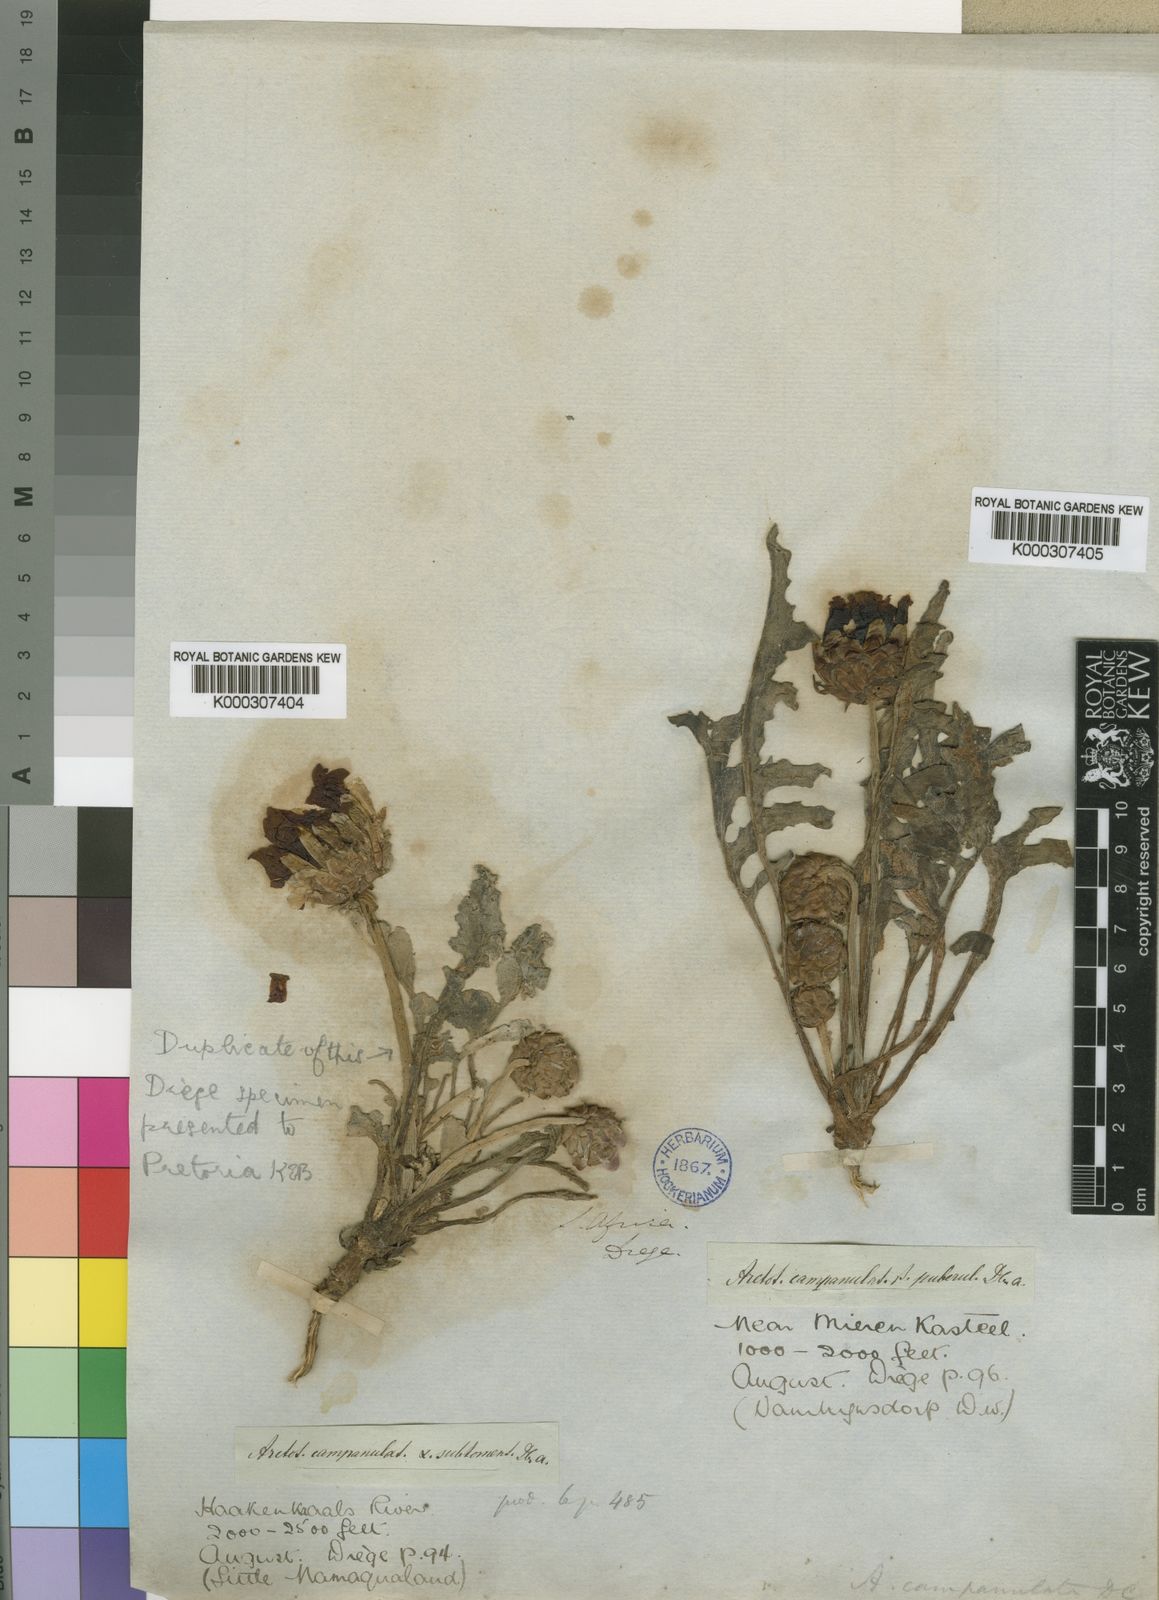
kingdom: Plantae
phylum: Tracheophyta
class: Magnoliopsida
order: Asterales
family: Asteraceae
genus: Arctotis
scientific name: Arctotis campanulata
